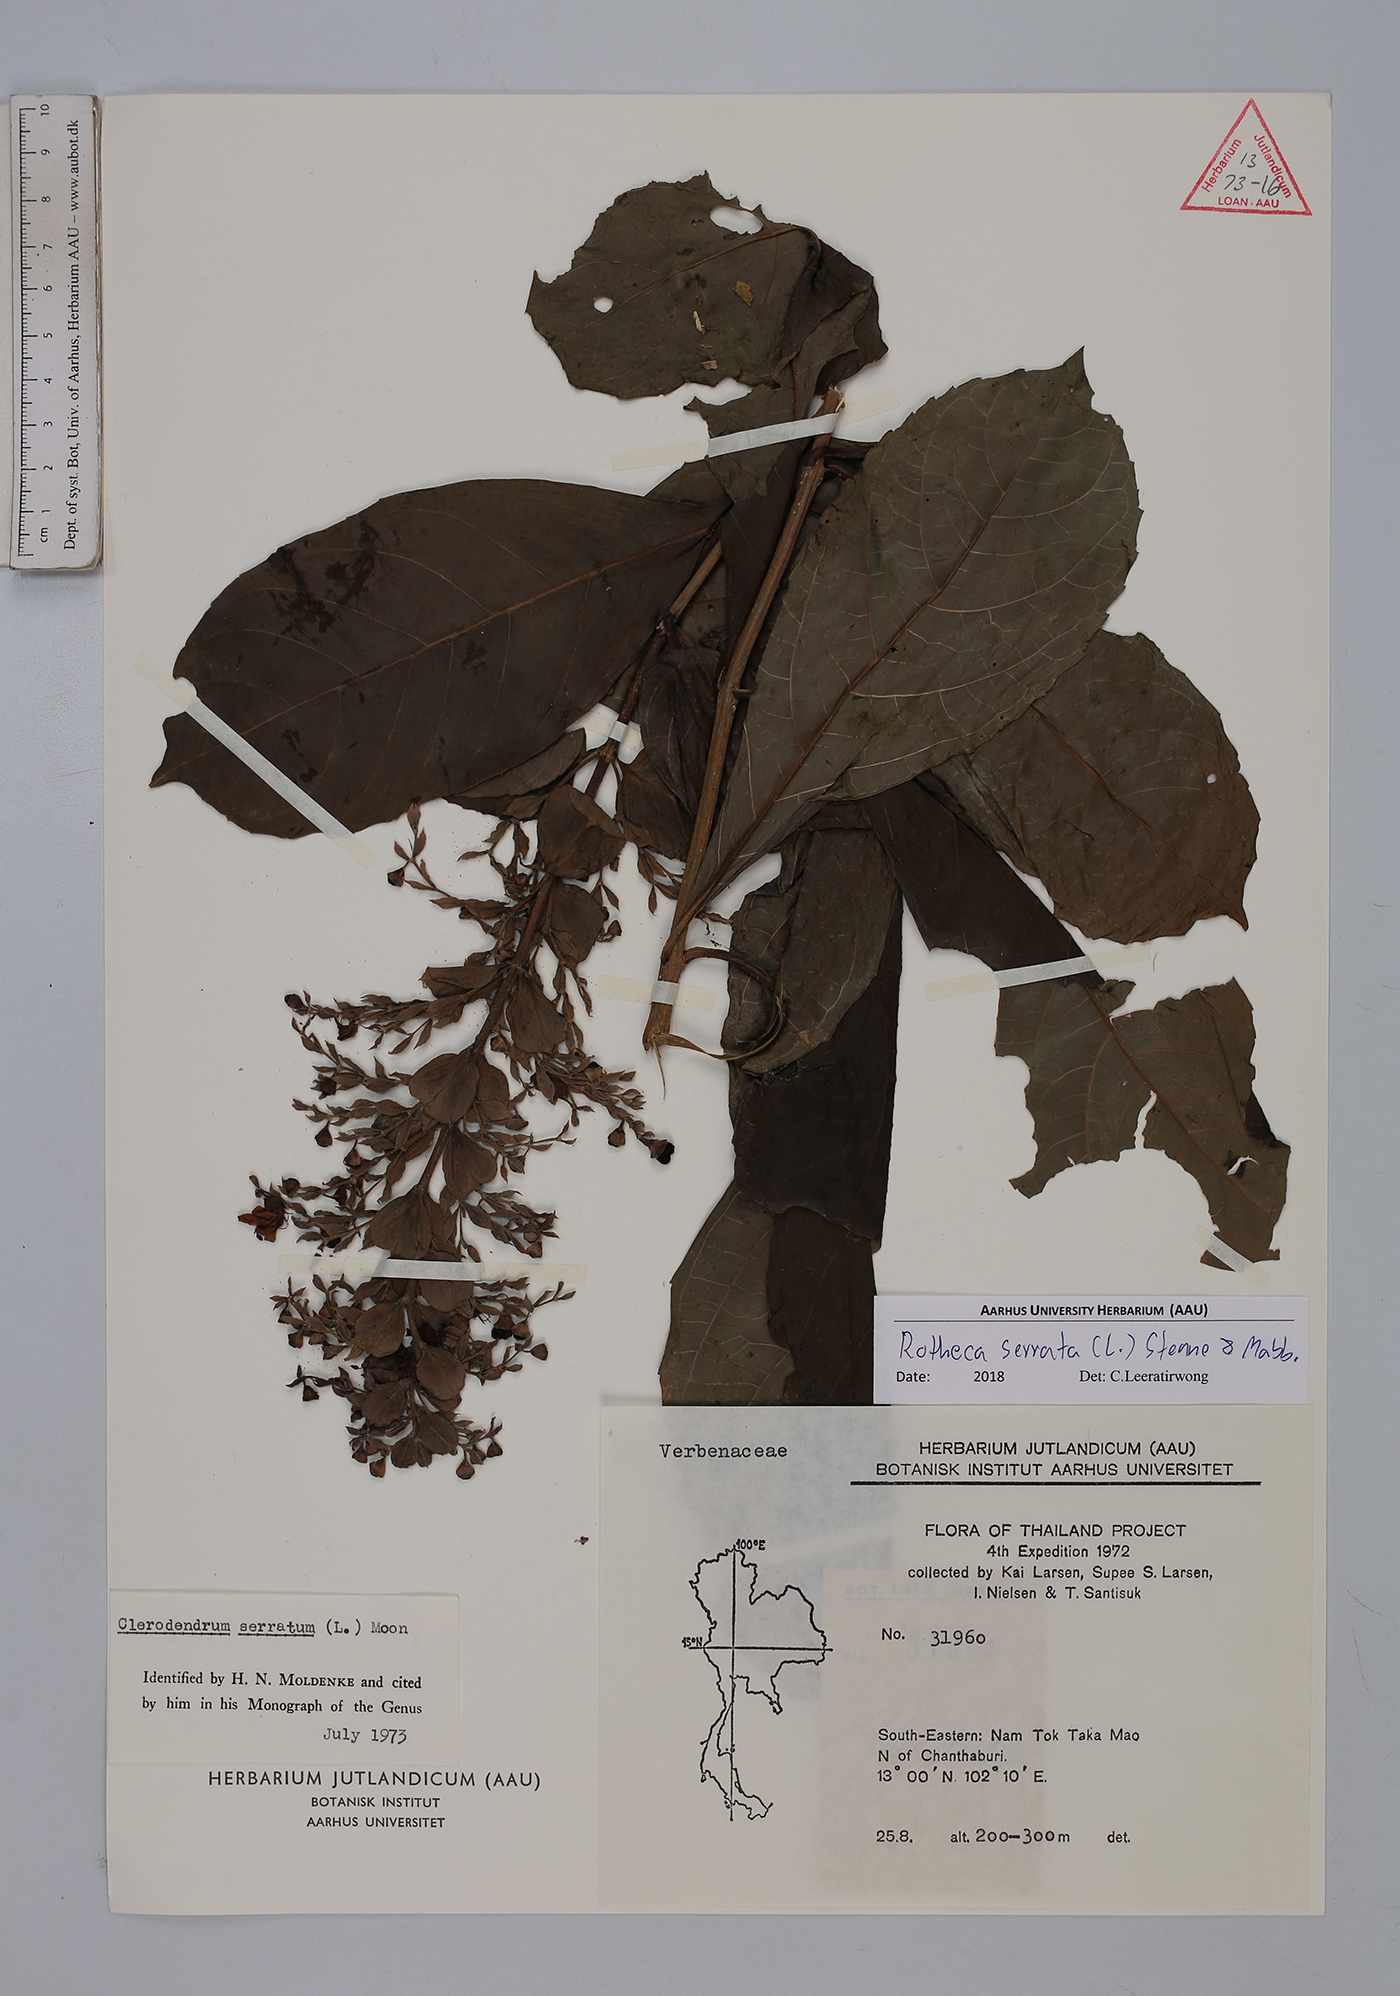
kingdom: Plantae
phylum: Tracheophyta
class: Magnoliopsida
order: Lamiales
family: Lamiaceae
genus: Rotheca
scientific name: Rotheca serrata
